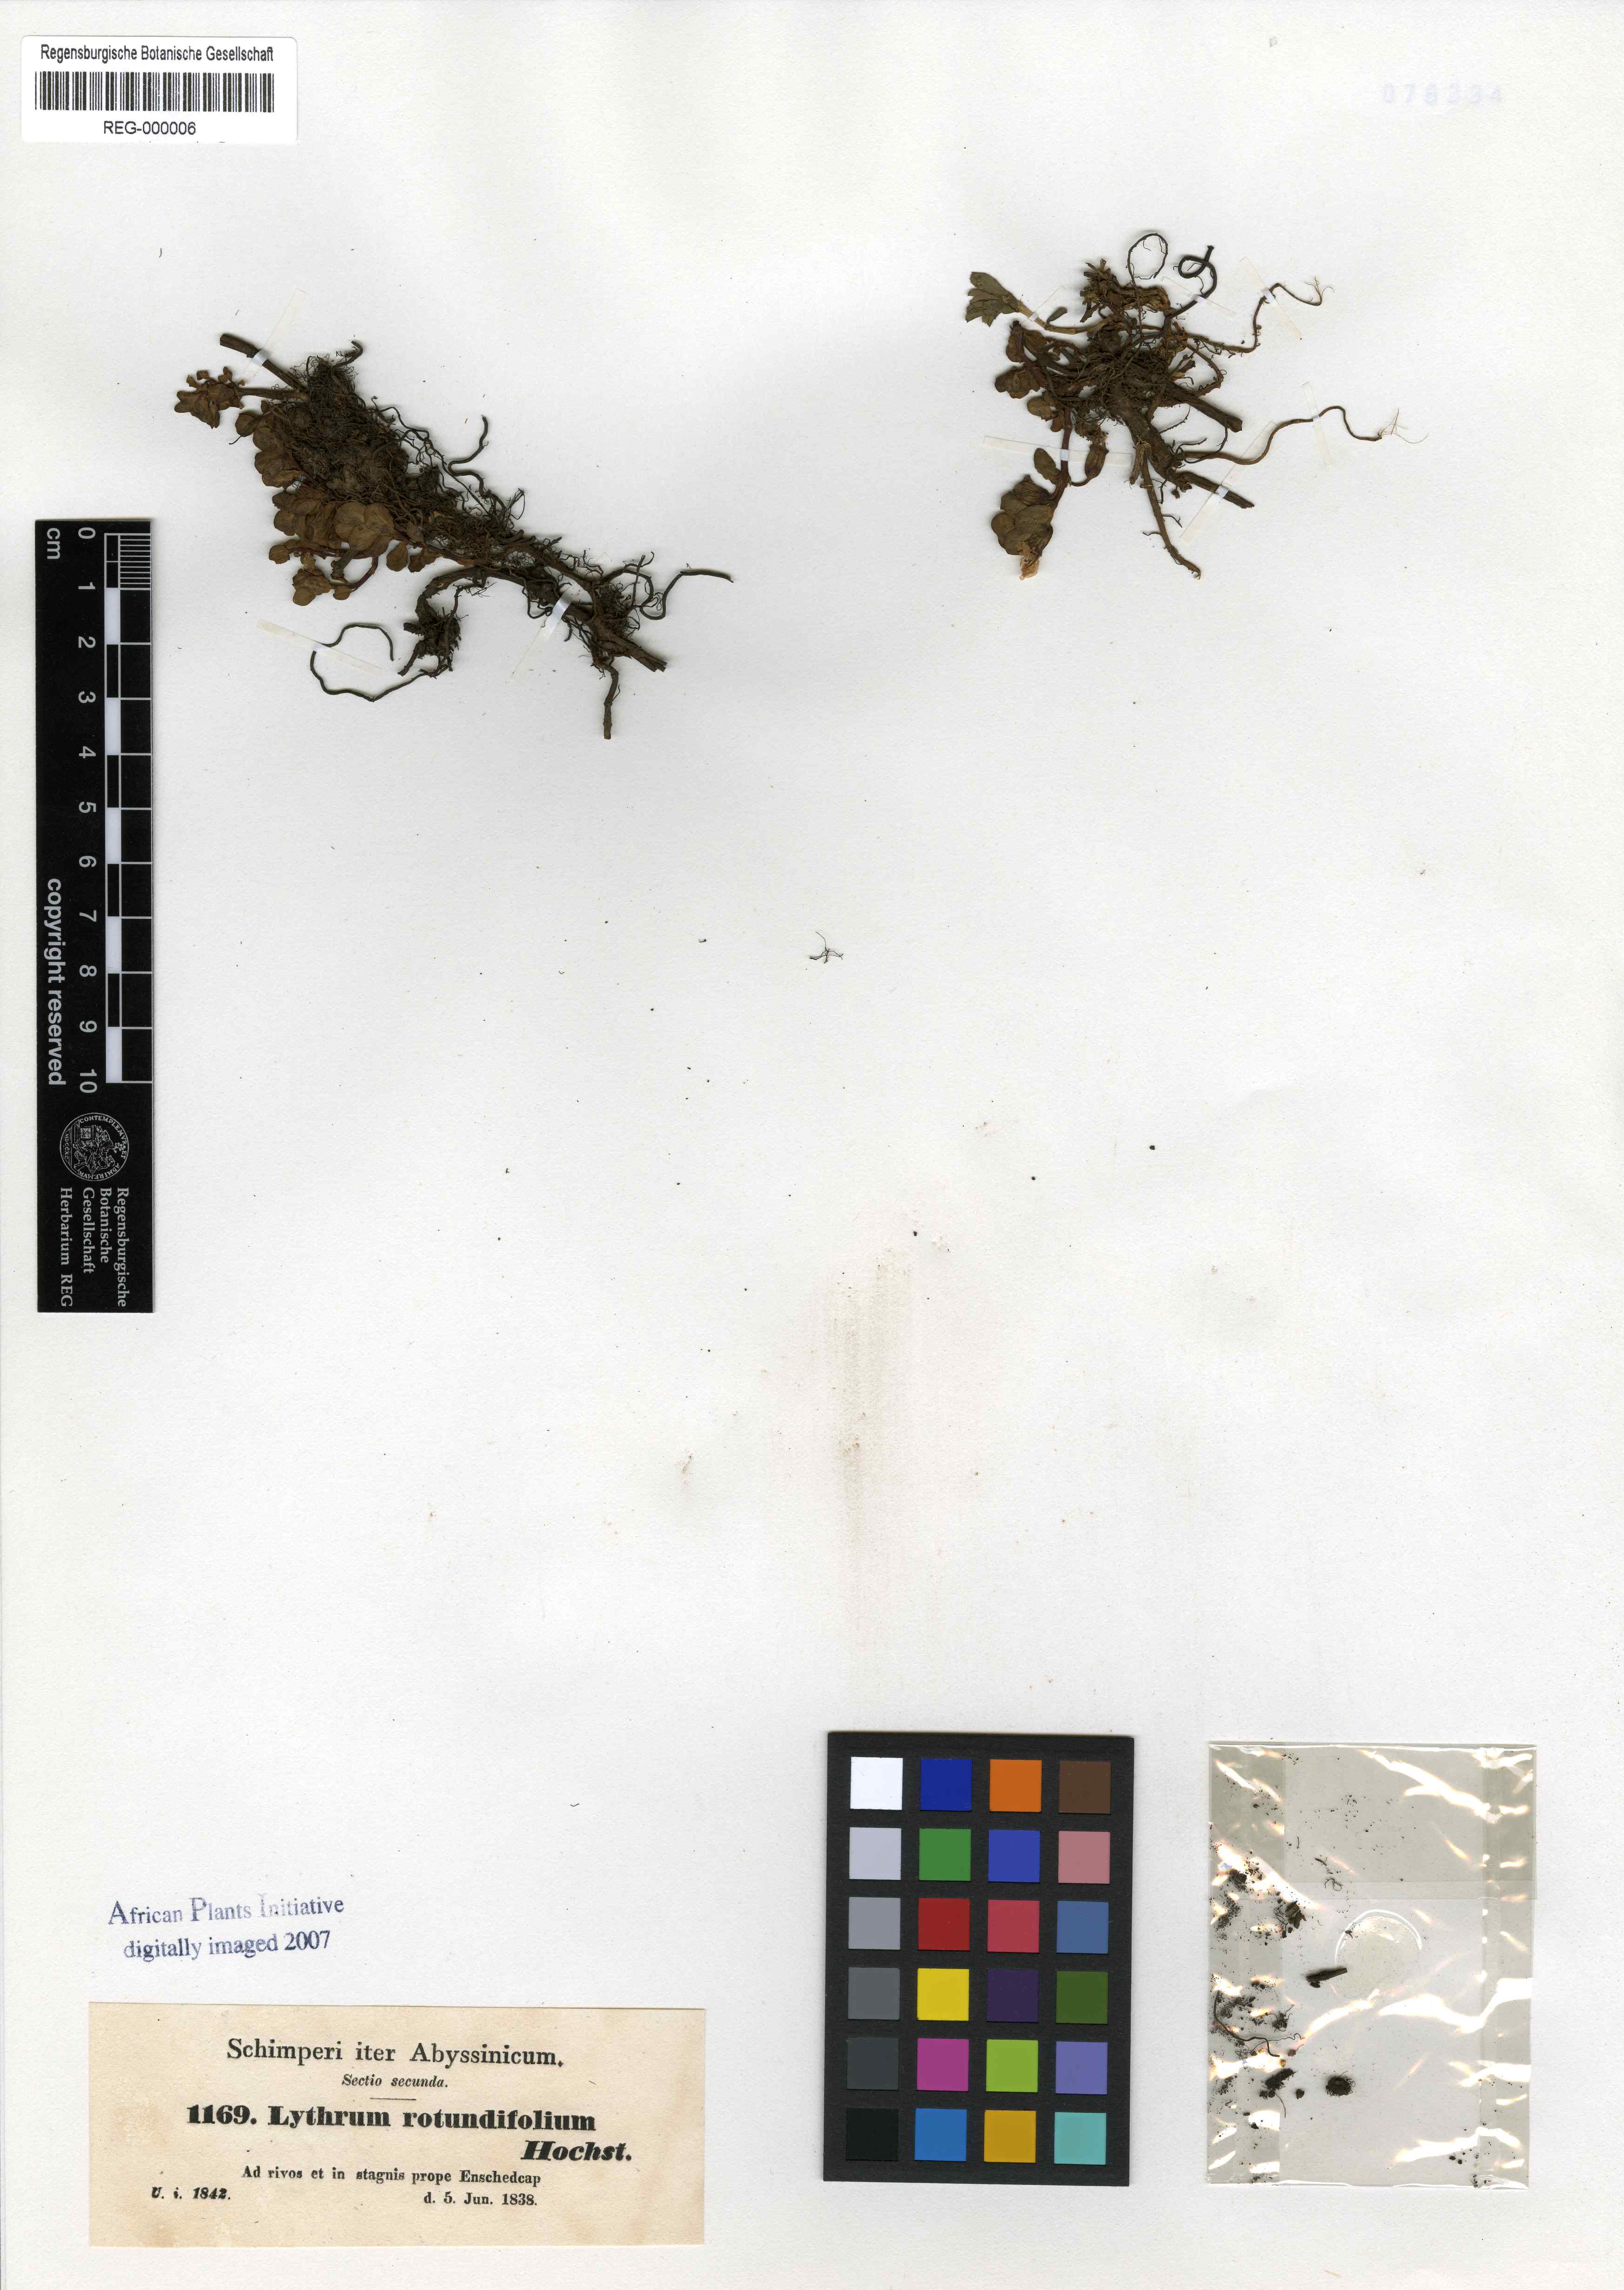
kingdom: Plantae
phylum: Tracheophyta
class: Magnoliopsida
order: Myrtales
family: Lythraceae
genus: Lythrum
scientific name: Lythrum rotundifolium
